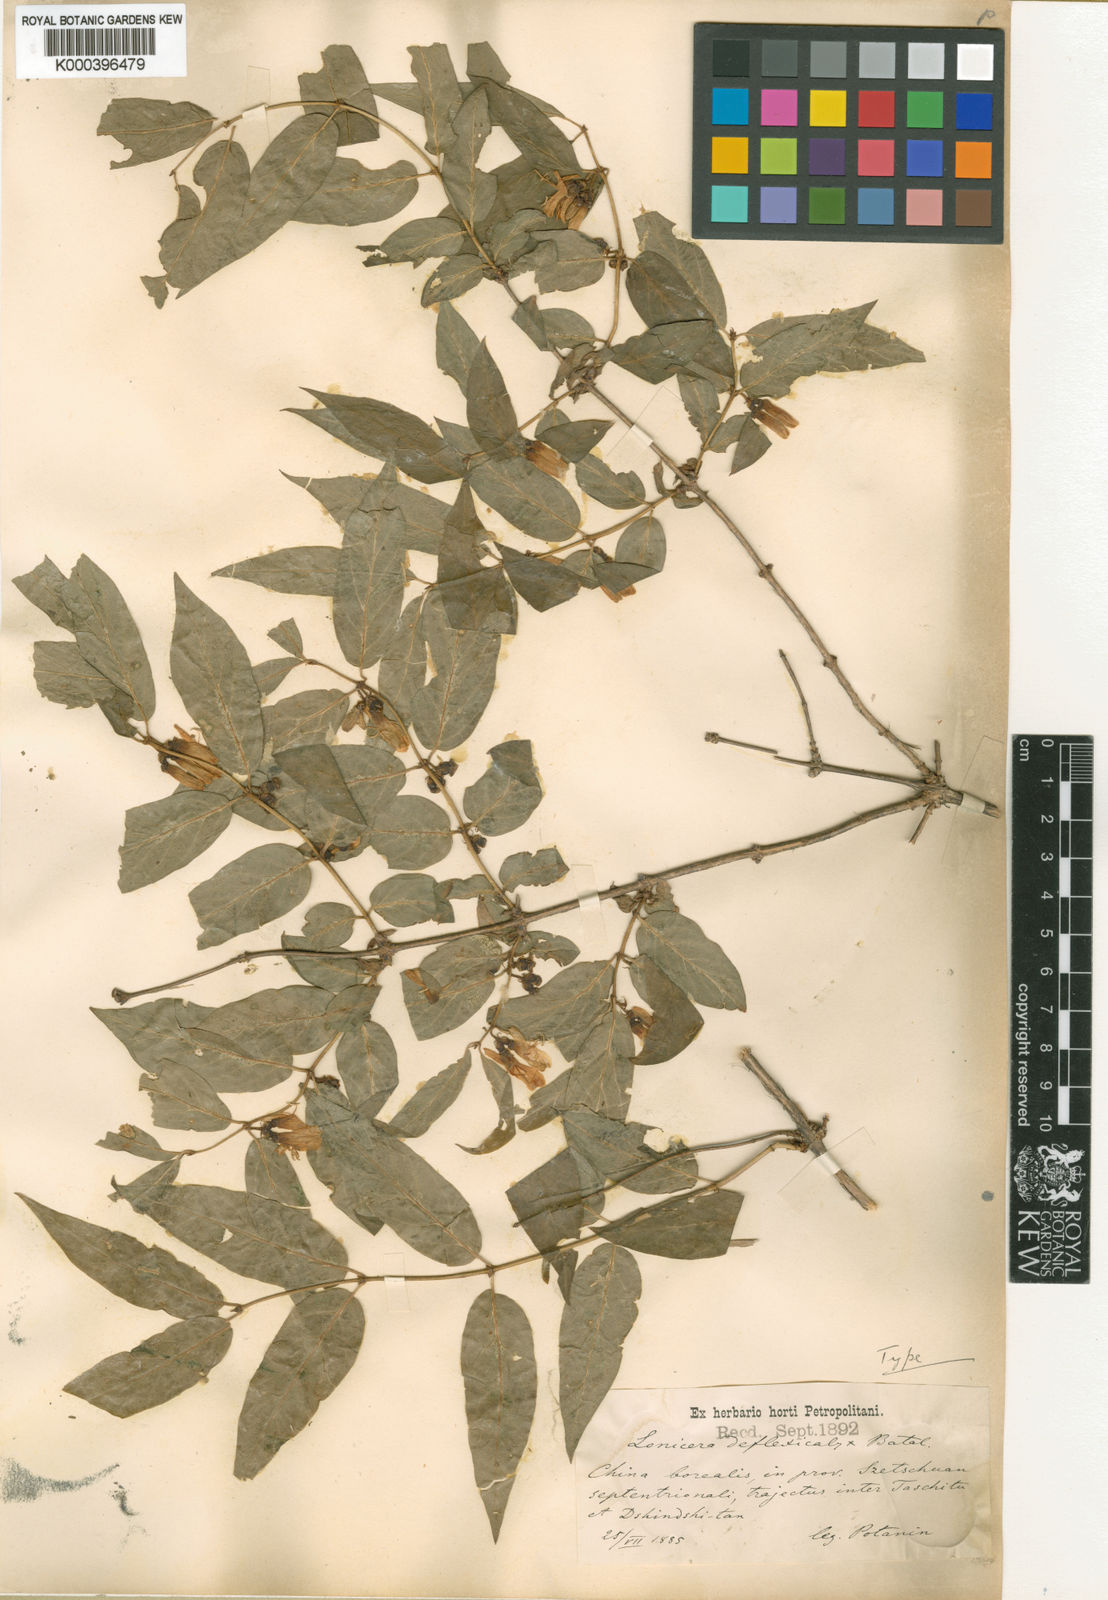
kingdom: Plantae
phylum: Tracheophyta
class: Magnoliopsida
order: Dipsacales
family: Caprifoliaceae
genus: Lonicera
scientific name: Lonicera trichosantha
